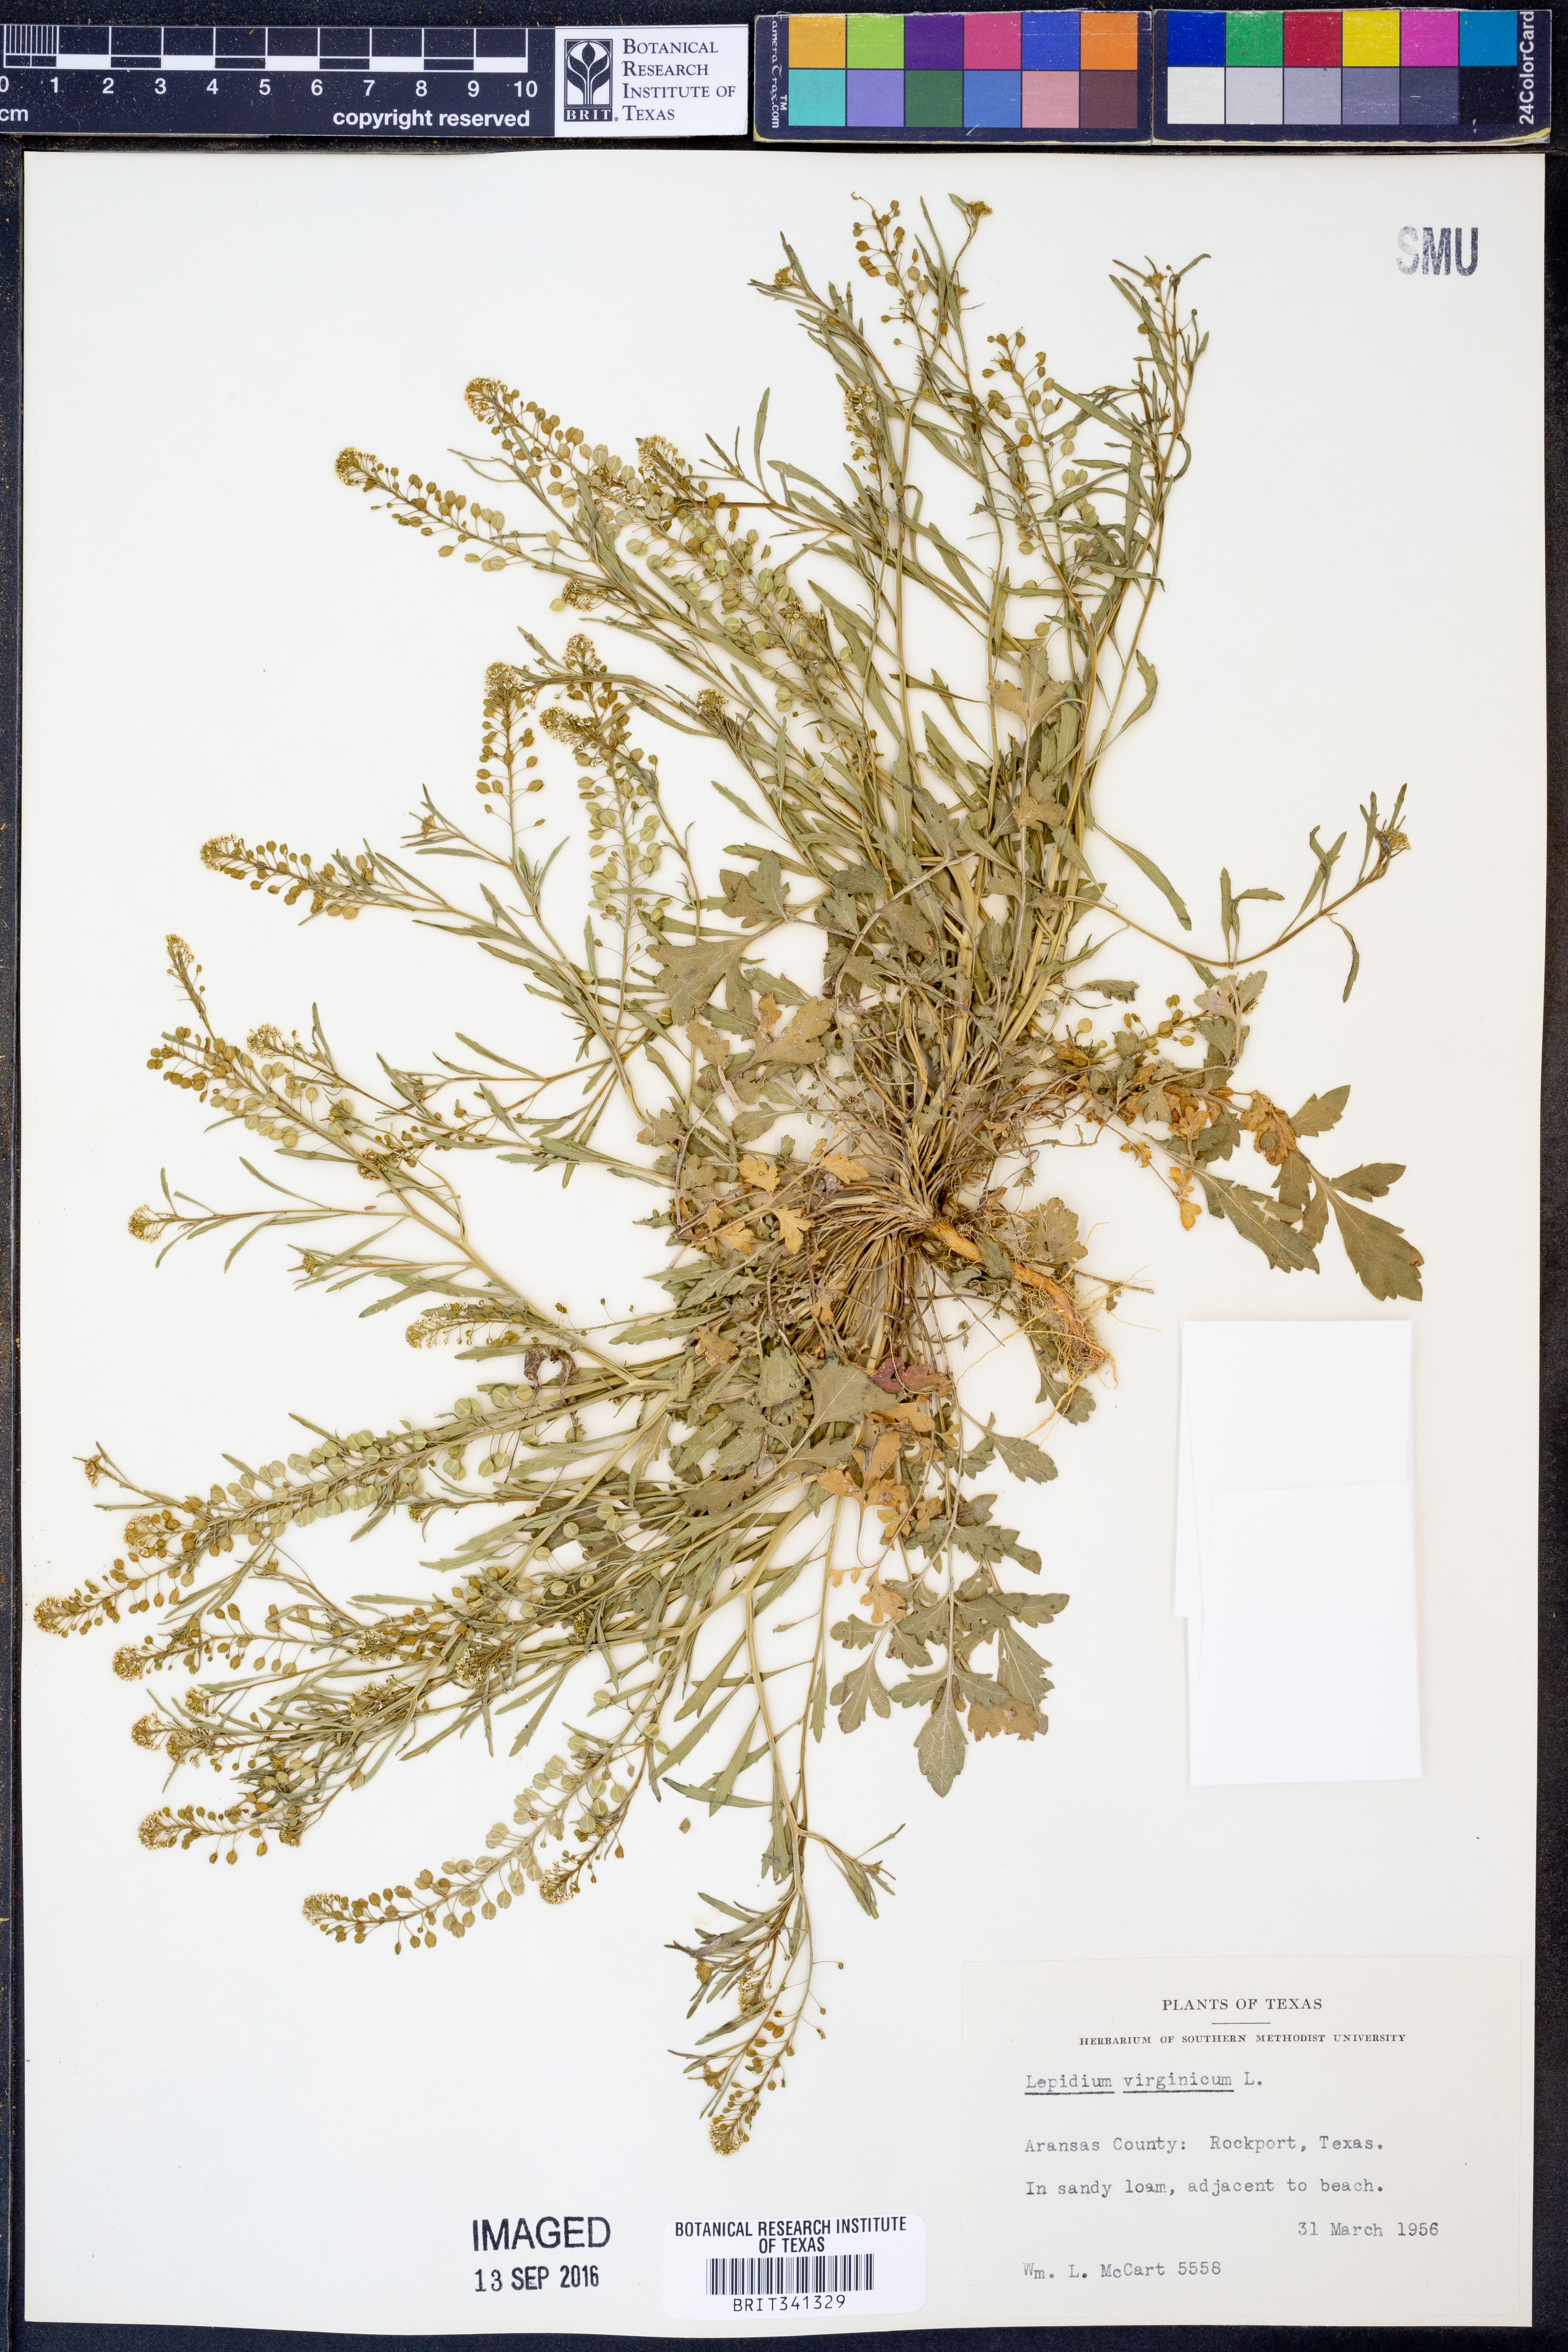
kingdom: Plantae
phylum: Tracheophyta
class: Magnoliopsida
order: Brassicales
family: Brassicaceae
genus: Lepidium
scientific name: Lepidium virginicum
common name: Least pepperwort
